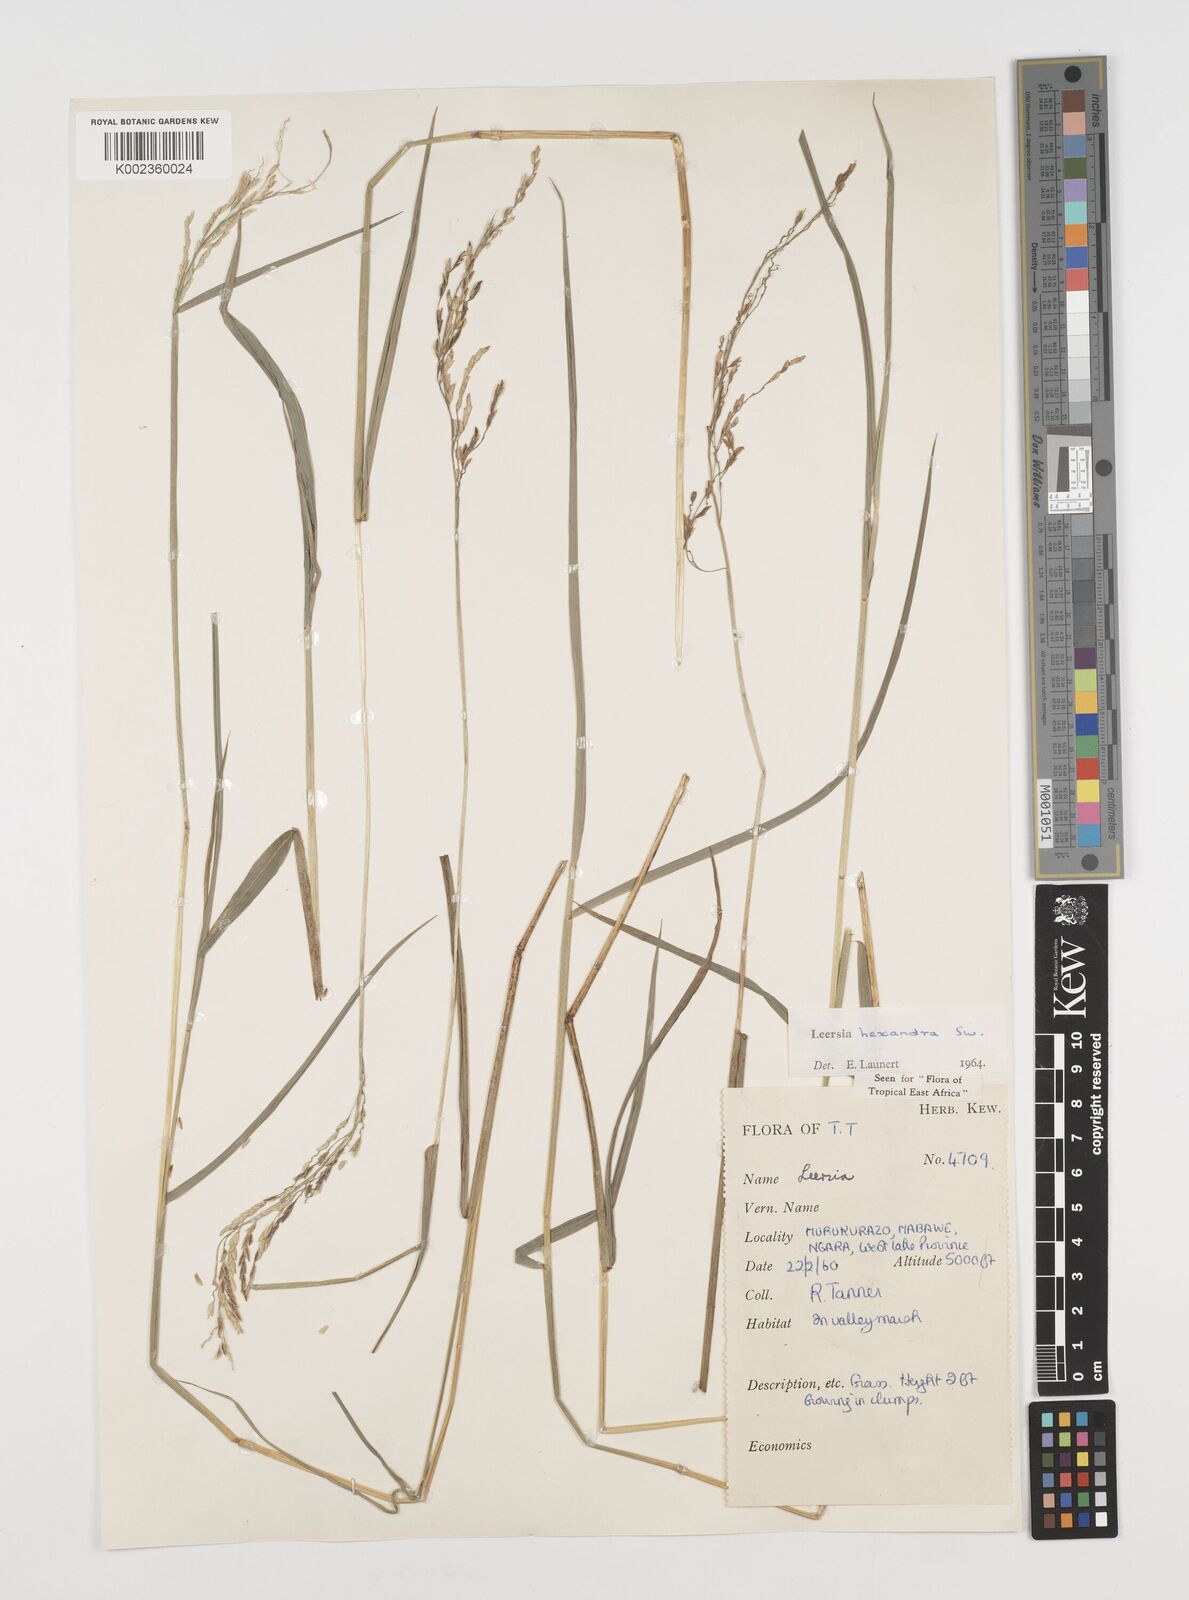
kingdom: Plantae
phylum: Tracheophyta
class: Liliopsida
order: Poales
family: Poaceae
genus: Leersia
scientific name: Leersia hexandra
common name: Southern cut grass
